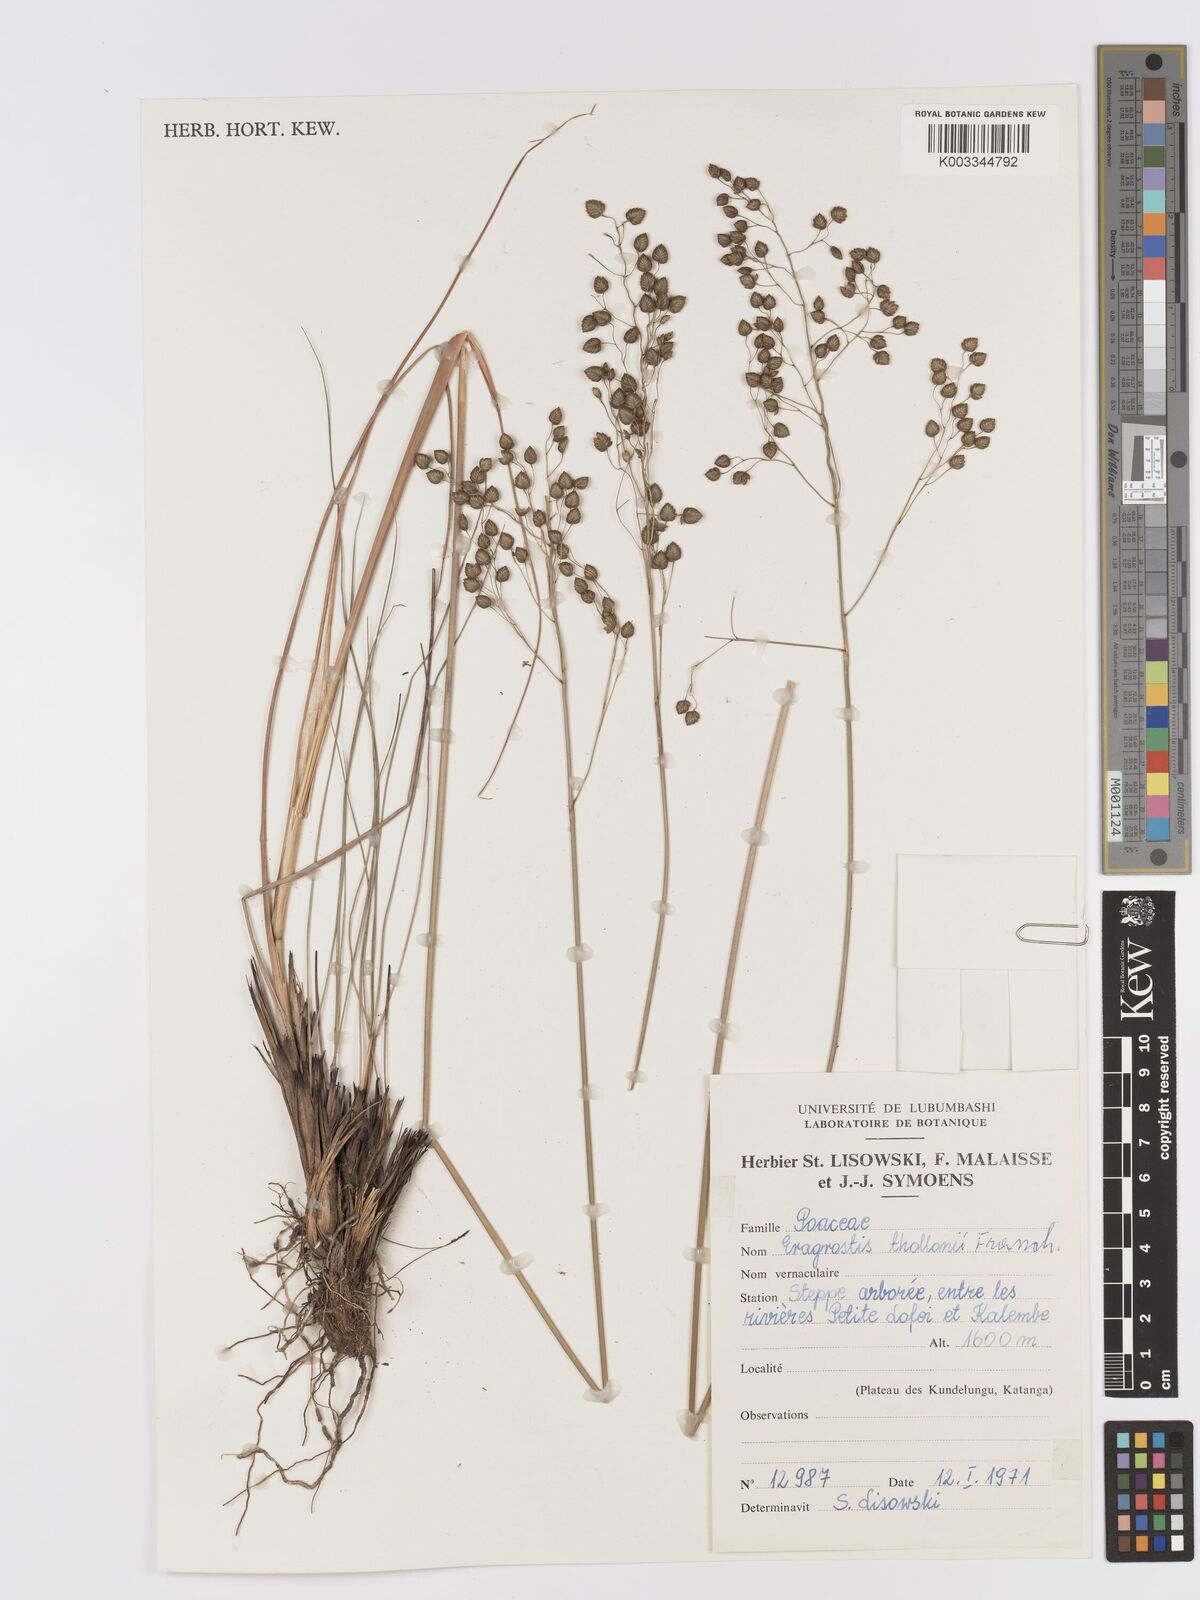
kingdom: Plantae
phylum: Tracheophyta
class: Liliopsida
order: Poales
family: Poaceae
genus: Eragrostis
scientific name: Eragrostis thollonii
